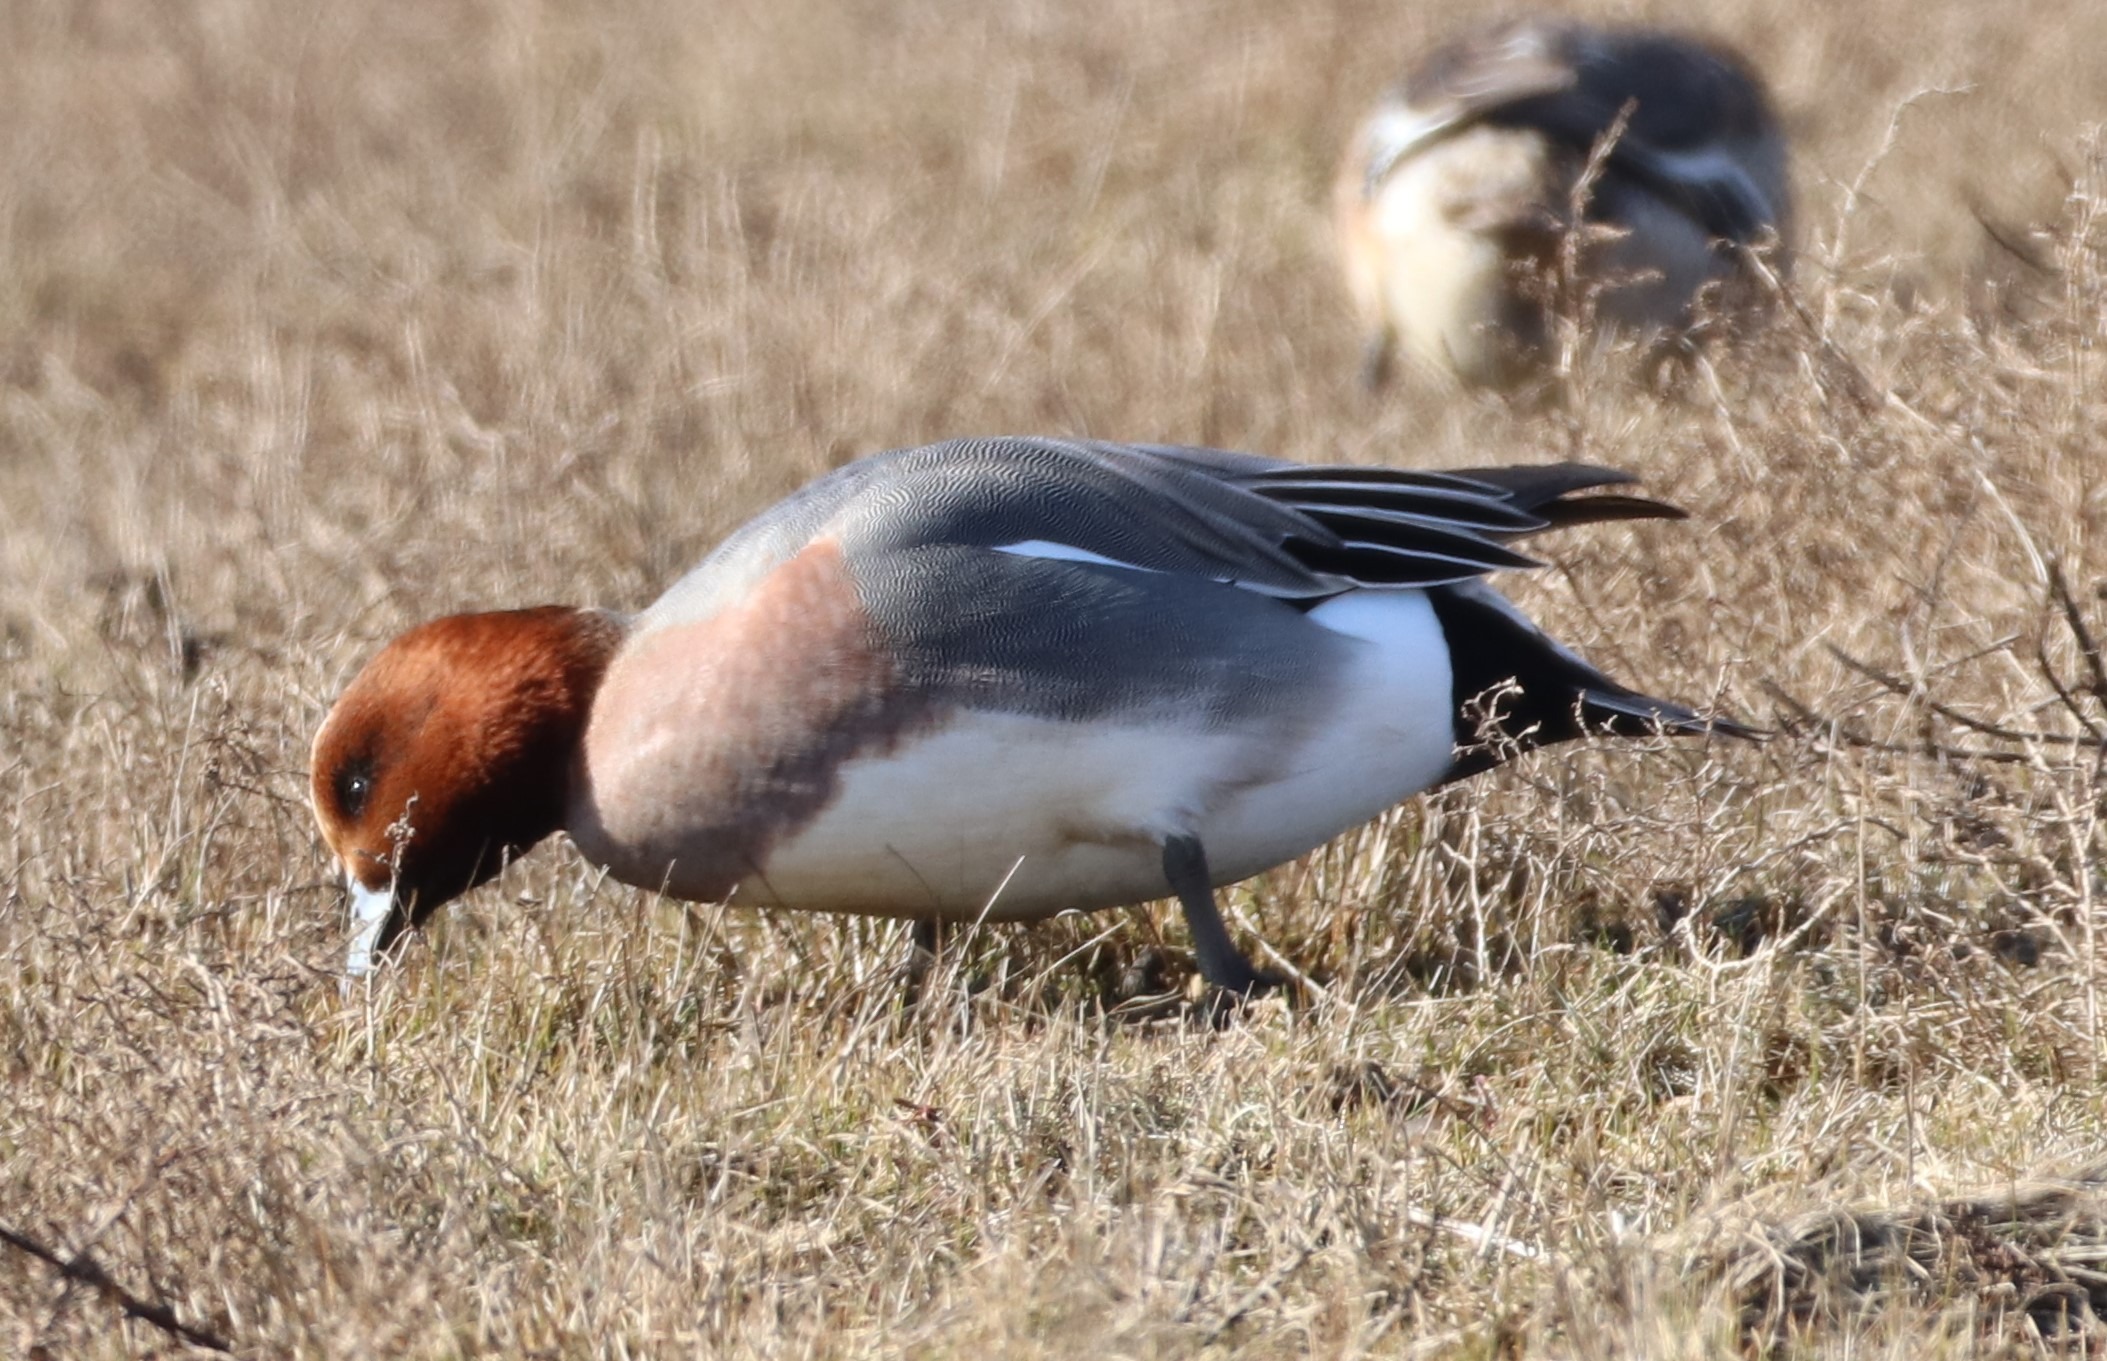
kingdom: Animalia
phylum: Chordata
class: Aves
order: Anseriformes
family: Anatidae
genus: Mareca
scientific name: Mareca penelope
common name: Pibeand
